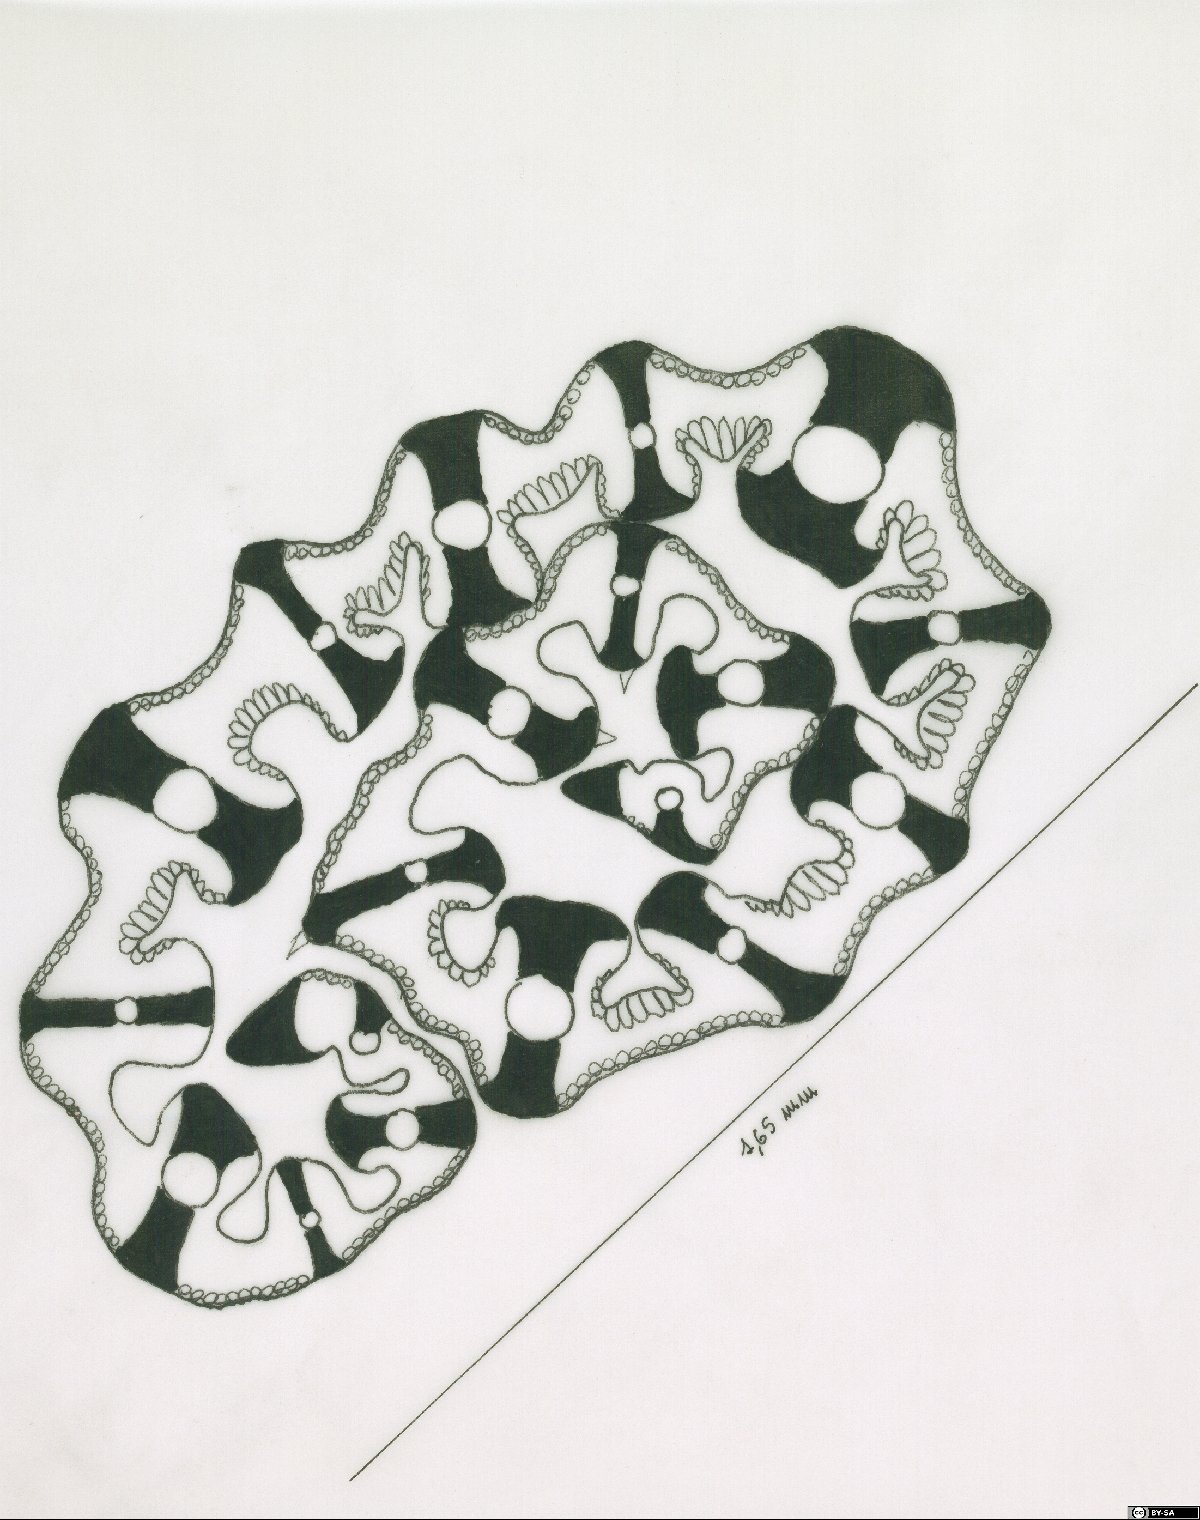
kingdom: Plantae
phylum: Tracheophyta
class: Liliopsida
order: Poales
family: Poaceae
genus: Festuca
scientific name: Festuca calabrica
